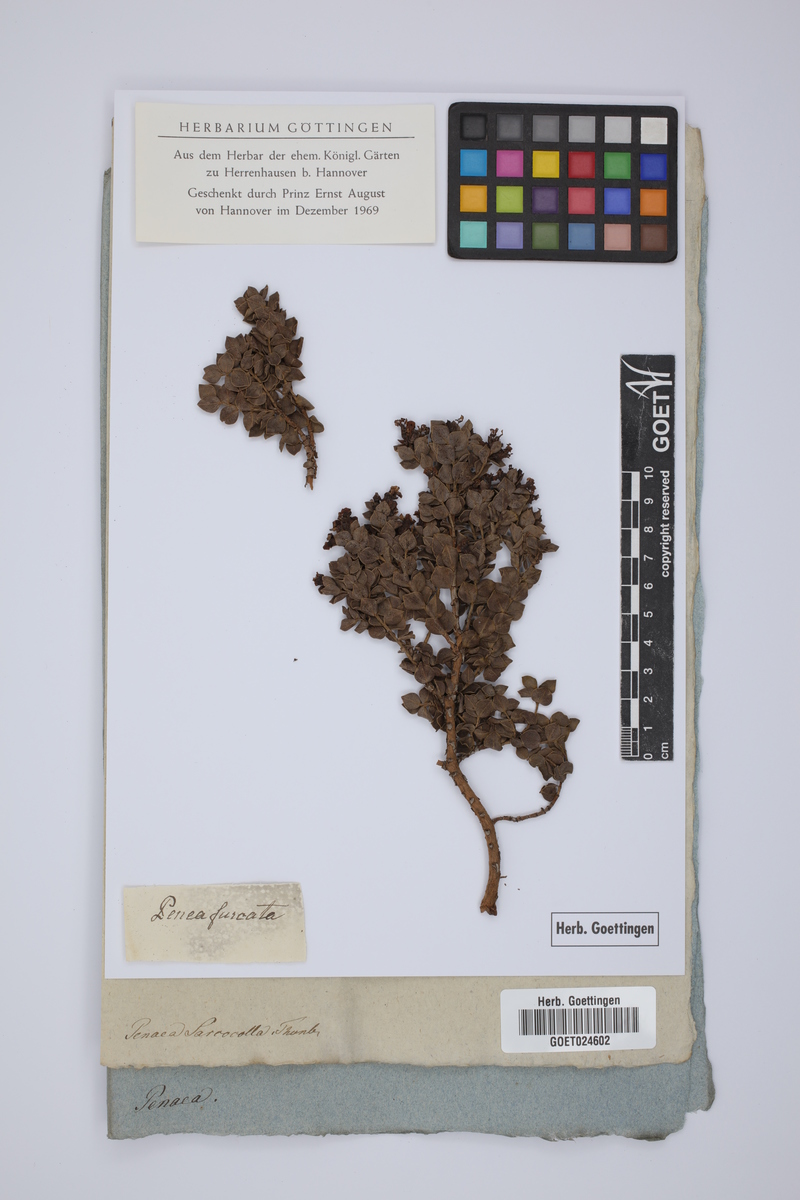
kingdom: Plantae
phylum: Tracheophyta
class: Magnoliopsida
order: Myrtales
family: Penaeaceae
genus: Saltera
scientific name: Saltera sarcocolla
